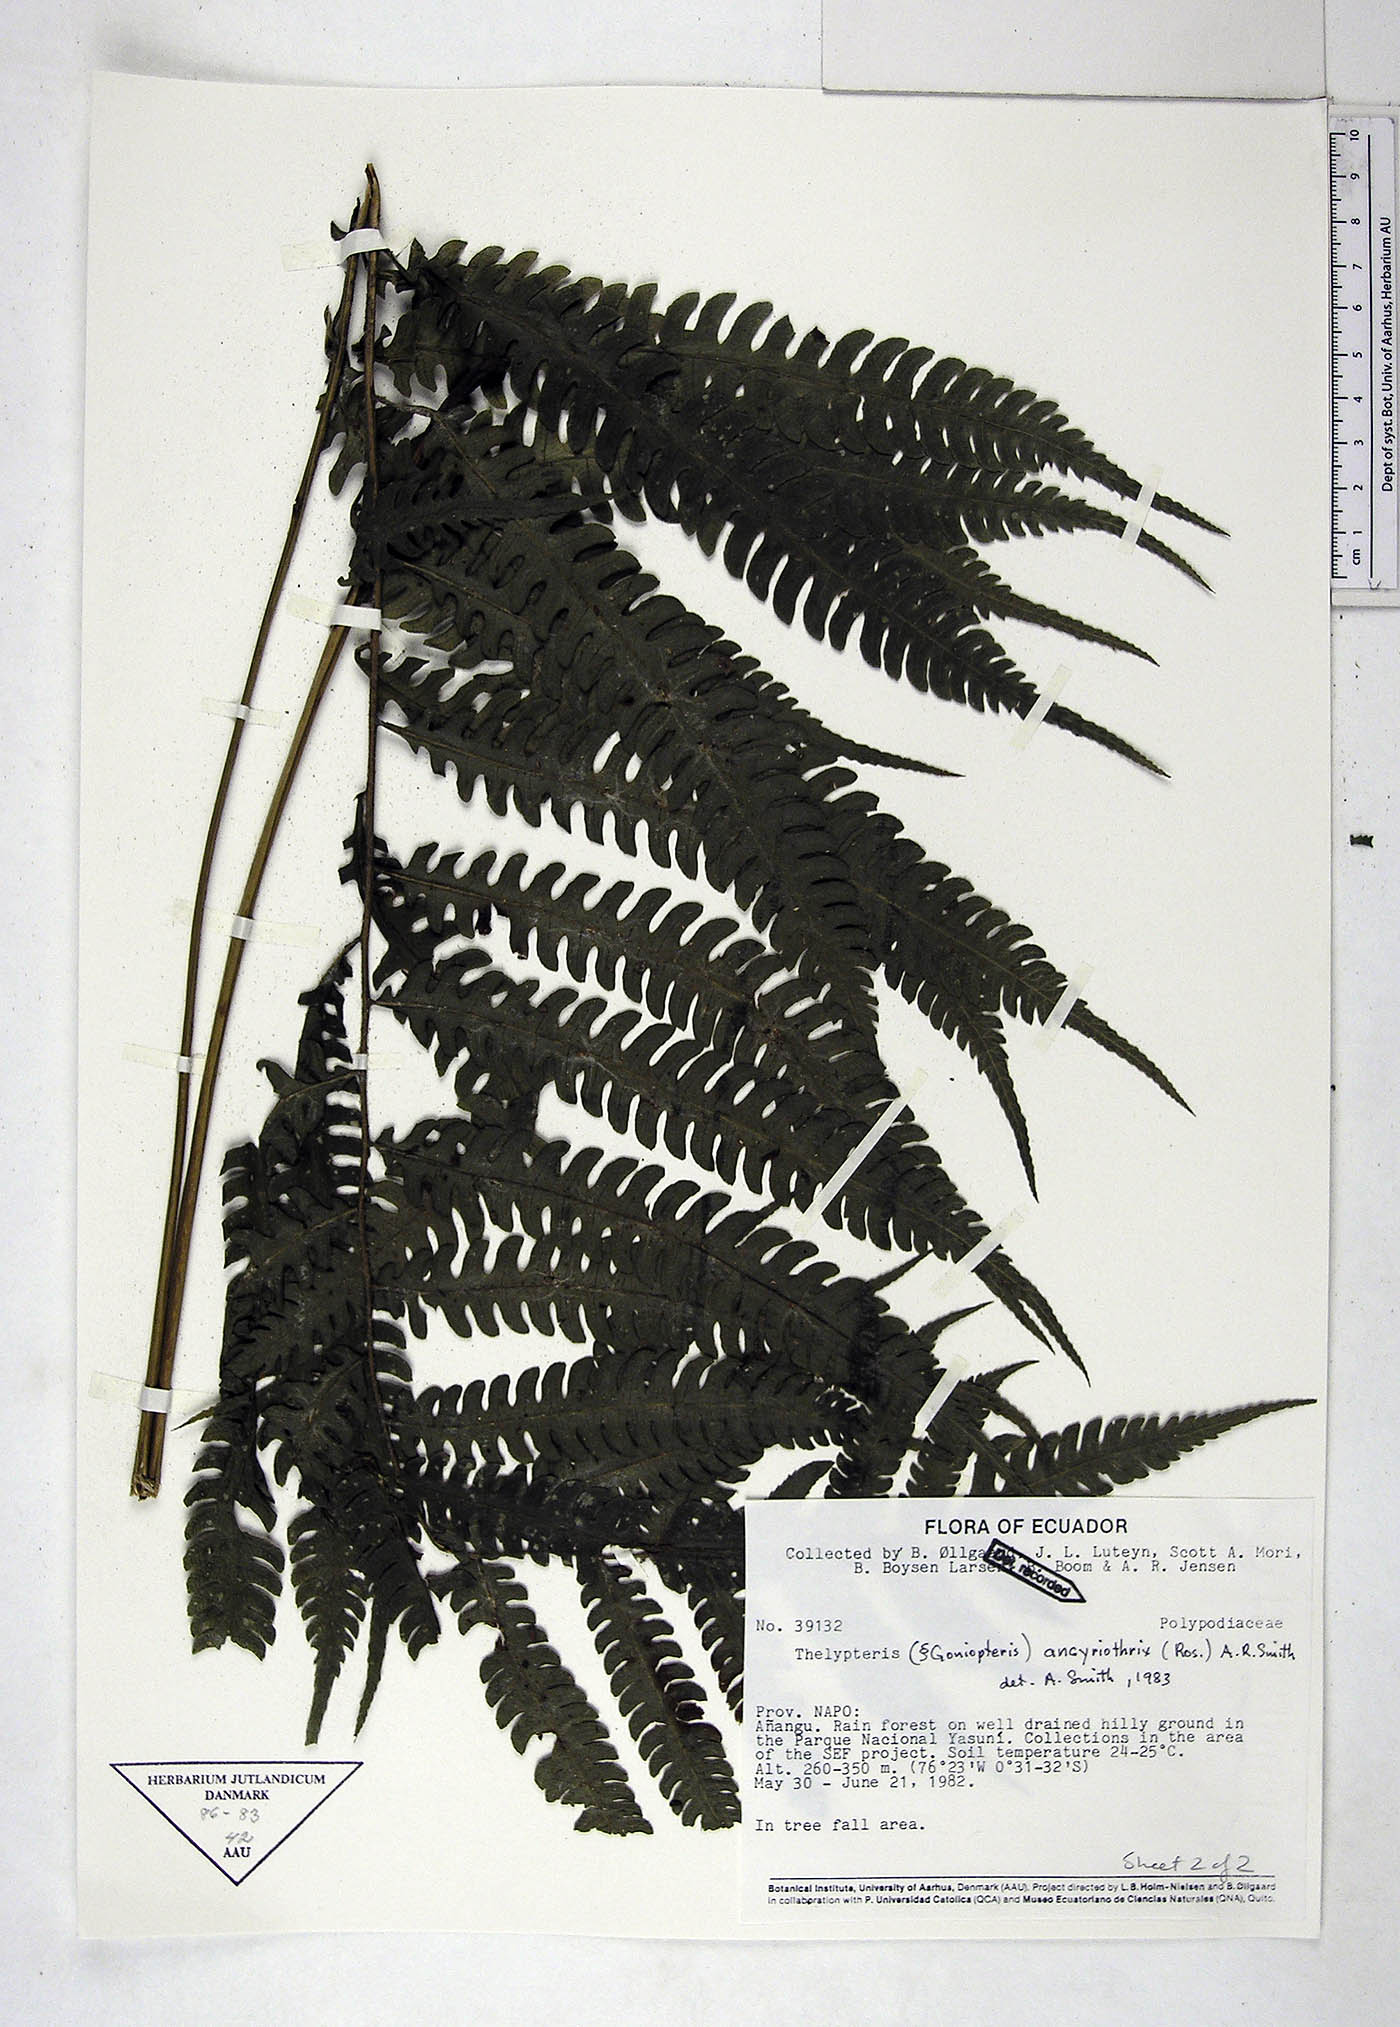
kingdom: Plantae
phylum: Tracheophyta
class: Polypodiopsida
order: Polypodiales
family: Thelypteridaceae
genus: Goniopteris
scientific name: Goniopteris ancyriothrix
